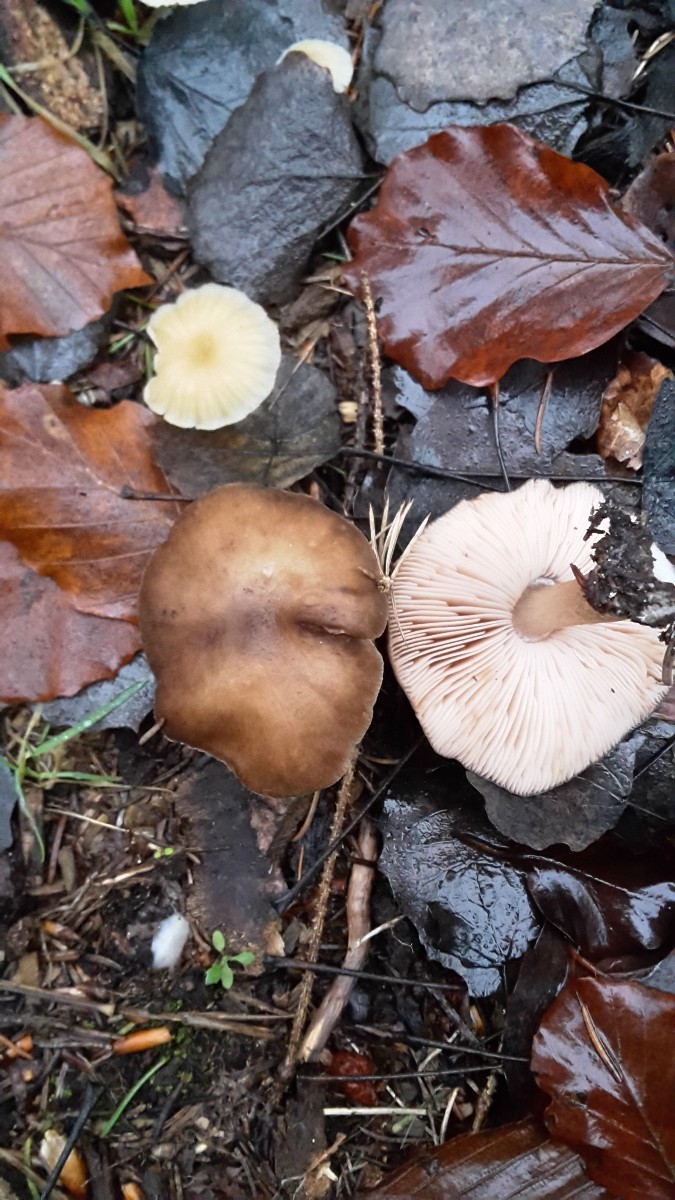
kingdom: Fungi
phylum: Basidiomycota
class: Agaricomycetes
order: Agaricales
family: Pluteaceae
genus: Pluteus
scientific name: Pluteus cervinus
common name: sodfarvet skærmhat
